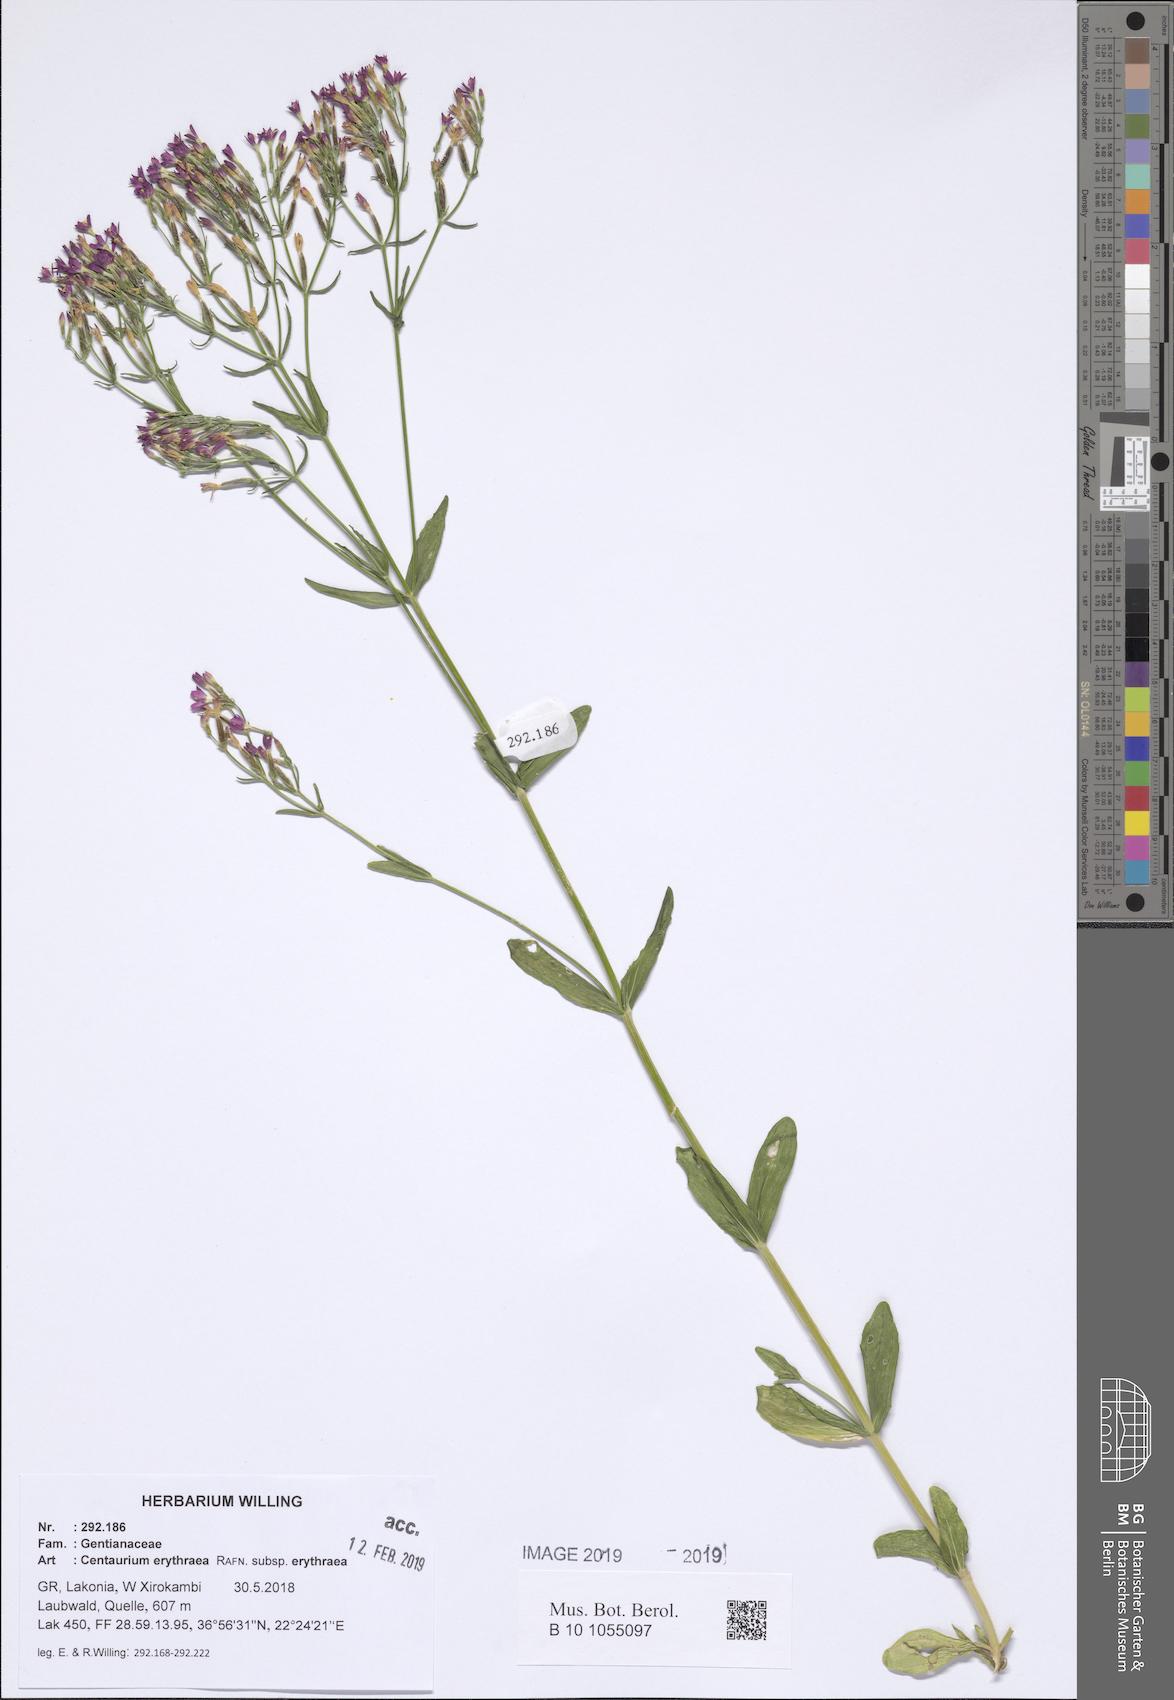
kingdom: Plantae
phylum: Tracheophyta
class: Magnoliopsida
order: Gentianales
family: Gentianaceae
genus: Centaurium
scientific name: Centaurium erythraea
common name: Common centaury
